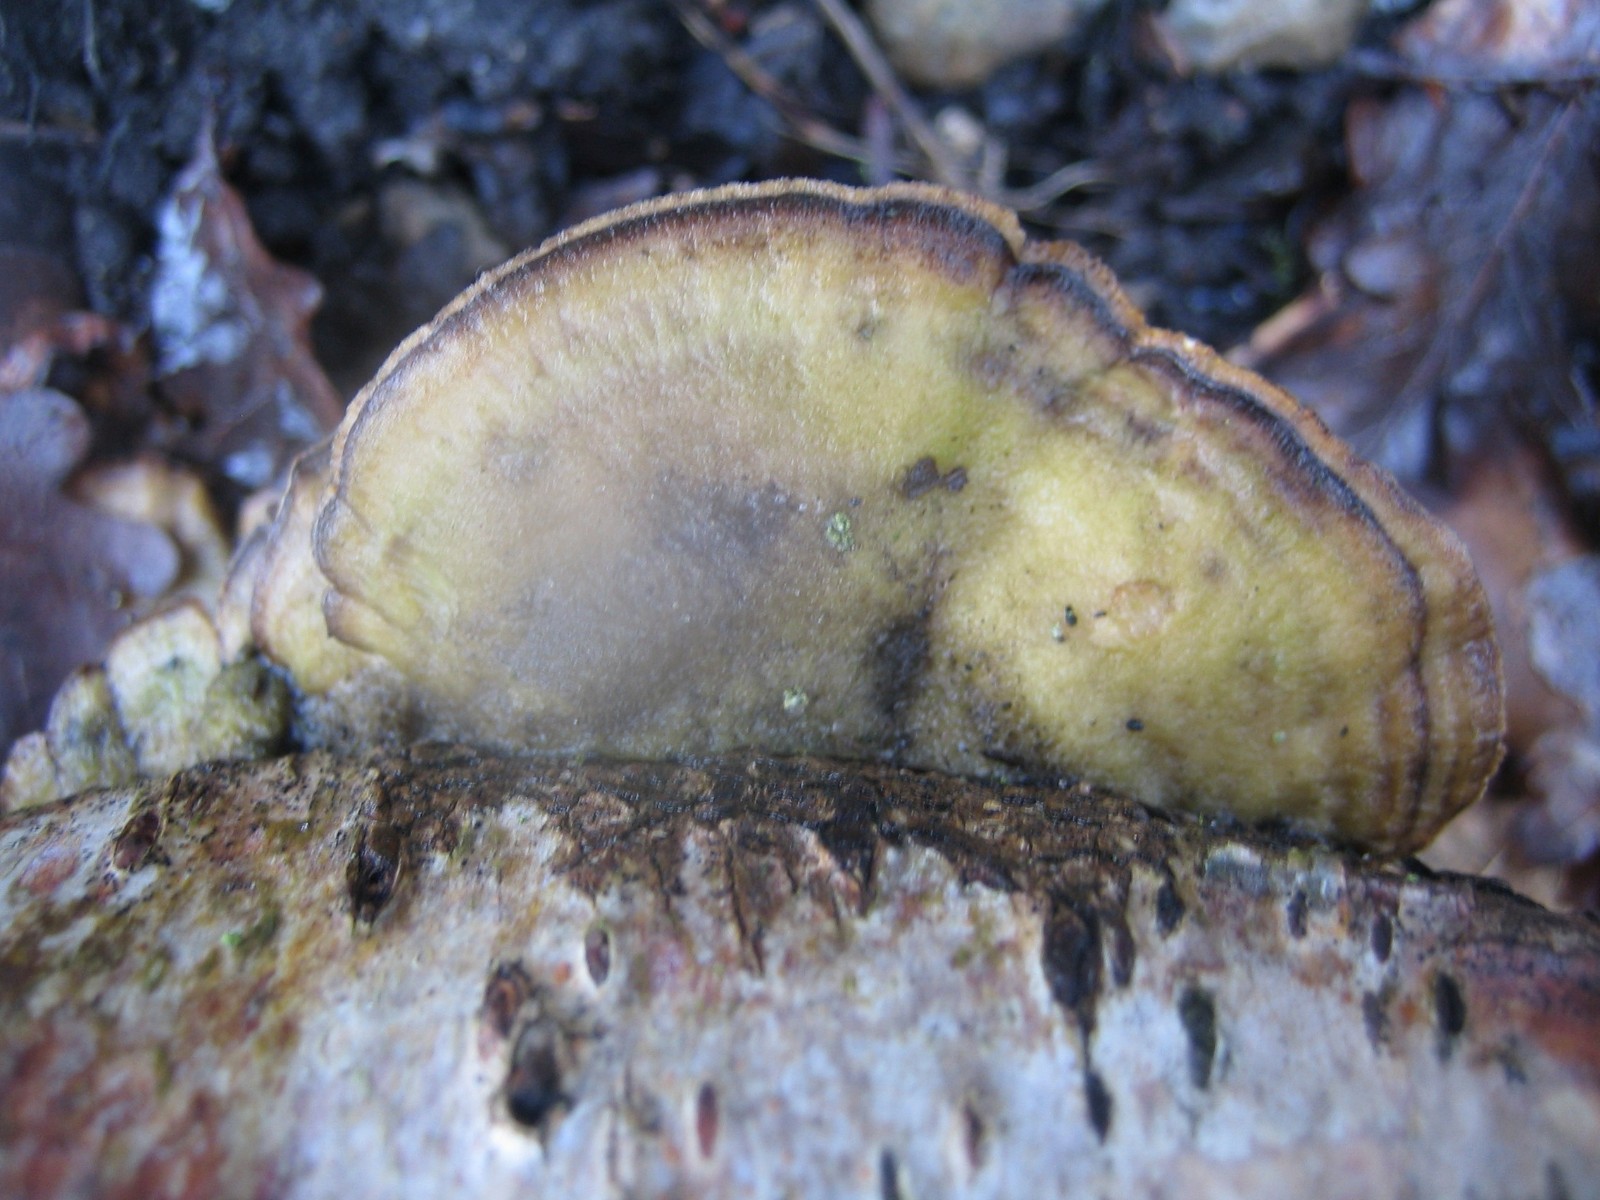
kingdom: Fungi
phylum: Basidiomycota
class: Agaricomycetes
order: Polyporales
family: Phanerochaetaceae
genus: Bjerkandera
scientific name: Bjerkandera adusta
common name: sveden sodporesvamp
